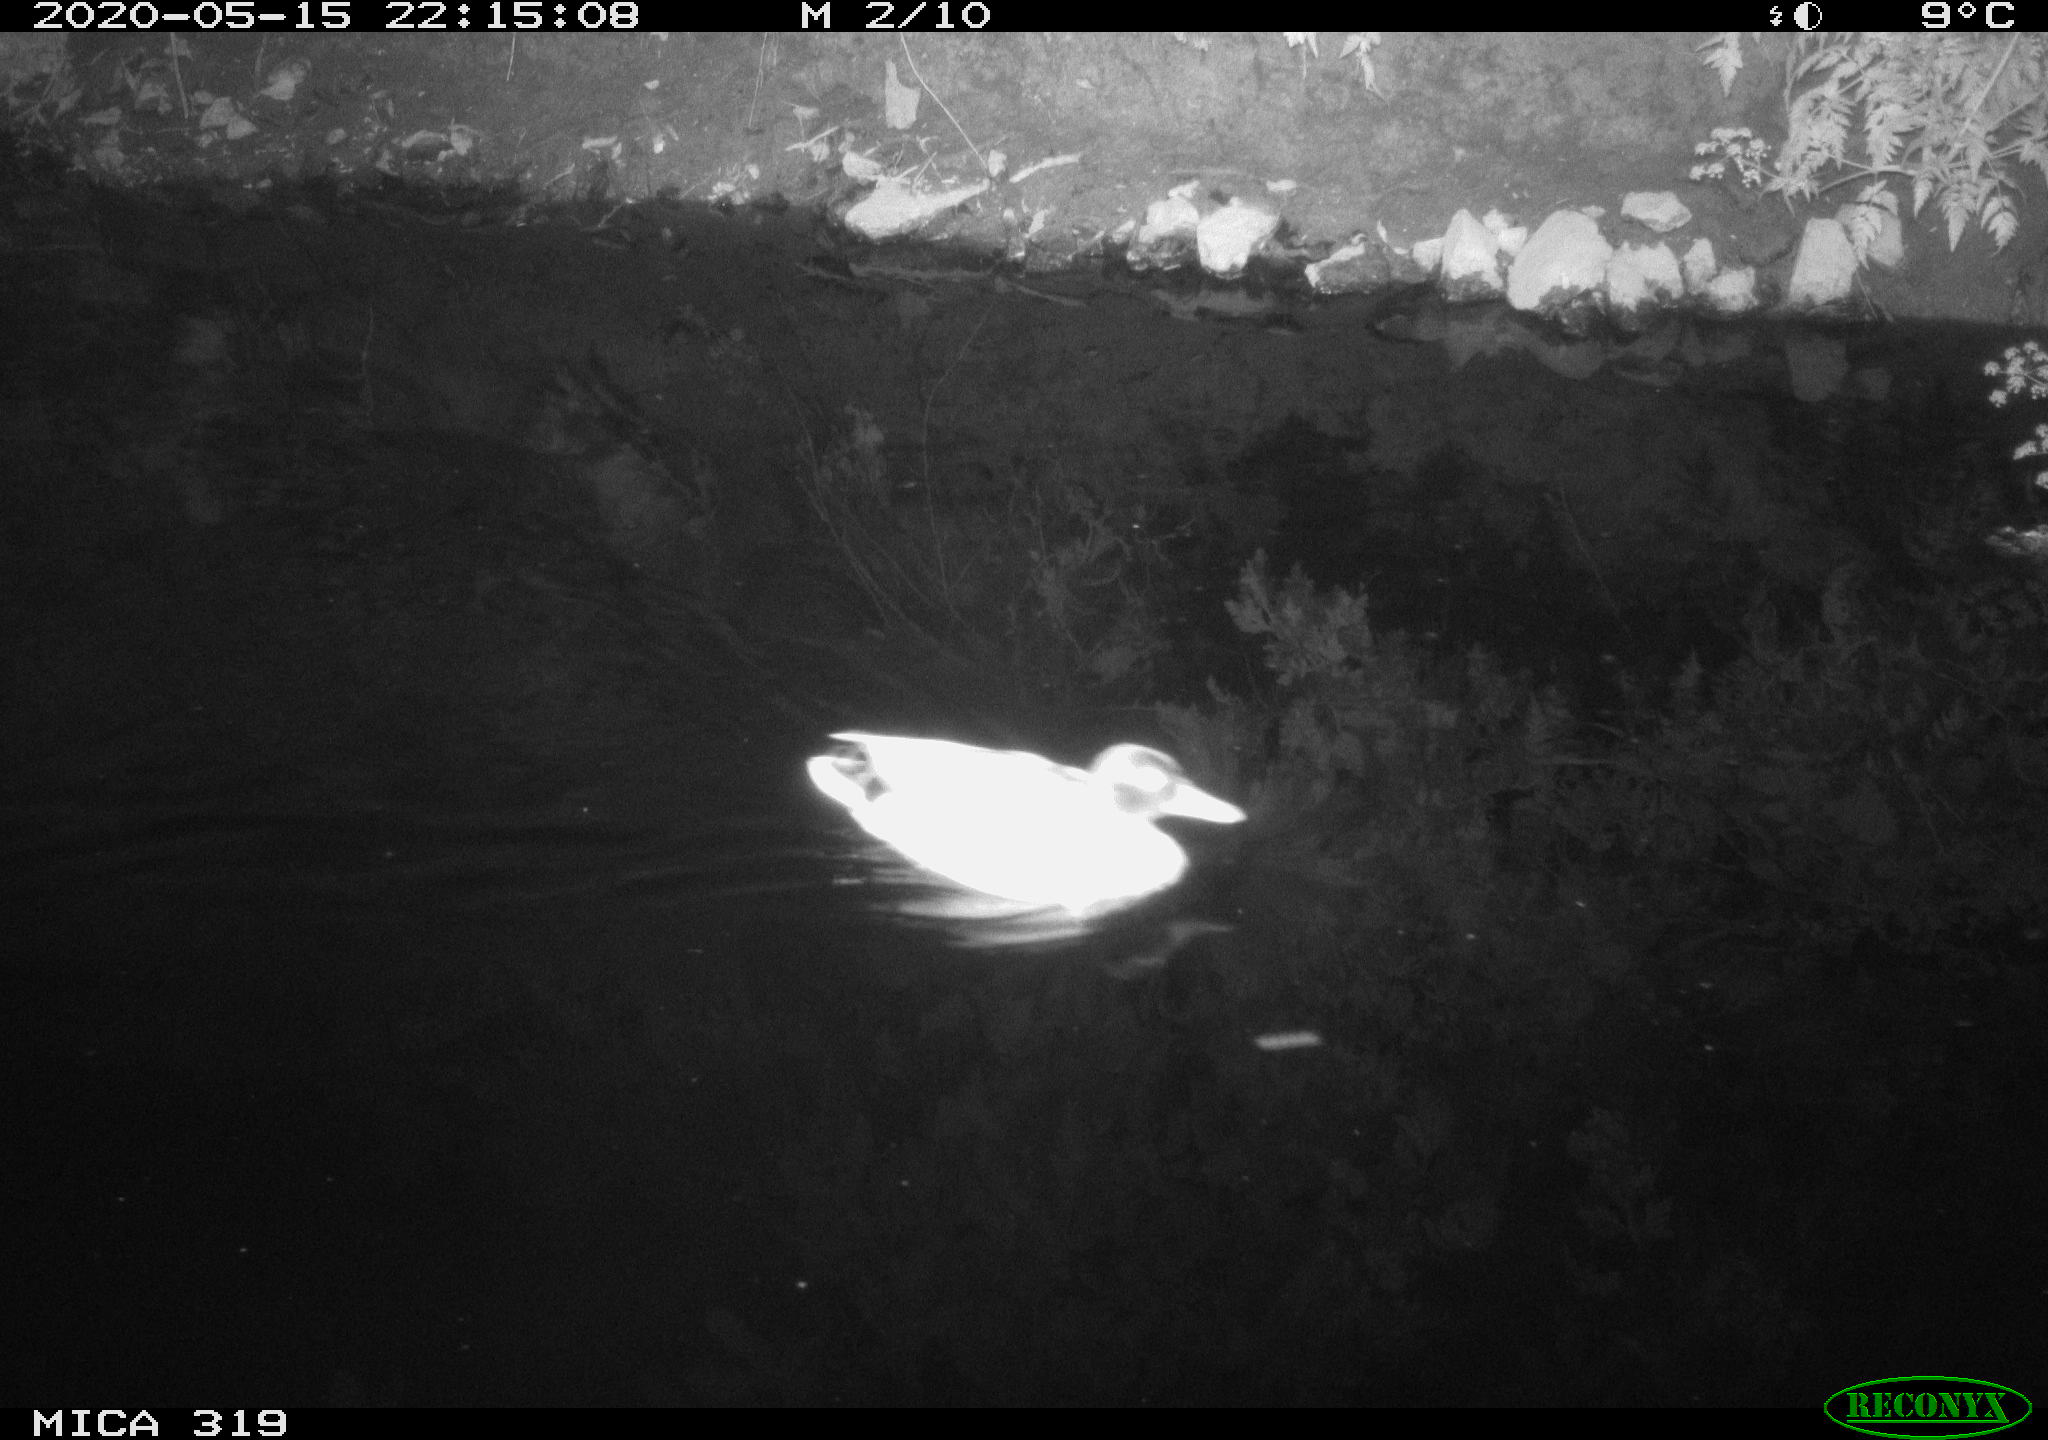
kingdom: Animalia
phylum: Chordata
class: Aves
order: Anseriformes
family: Anatidae
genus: Anas
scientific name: Anas platyrhynchos
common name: Mallard
